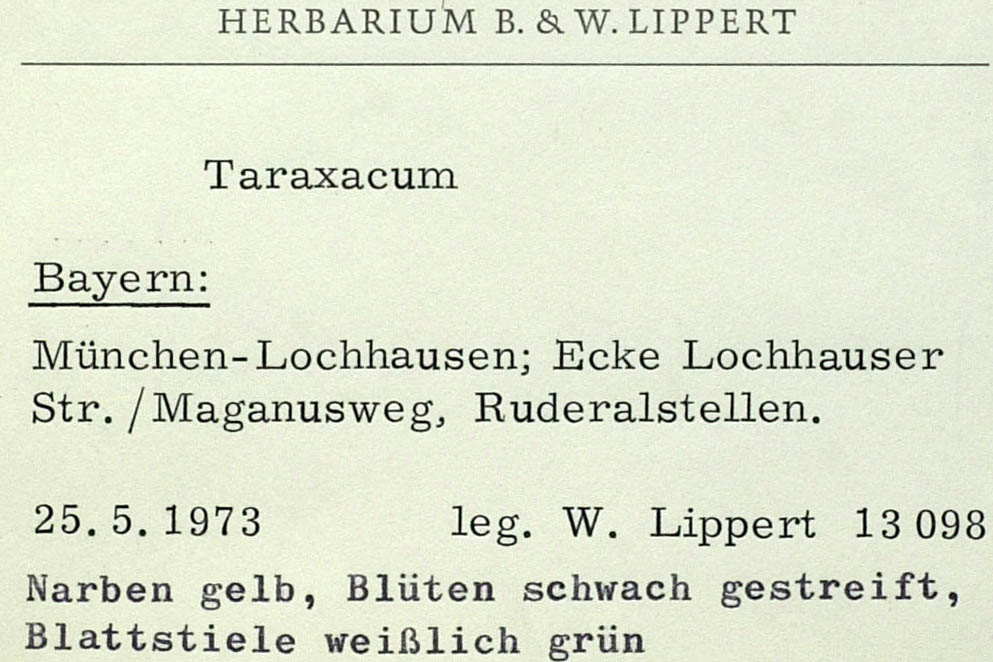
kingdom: Plantae
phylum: Tracheophyta
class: Magnoliopsida
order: Asterales
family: Asteraceae
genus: Taraxacum
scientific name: Taraxacum demotes
